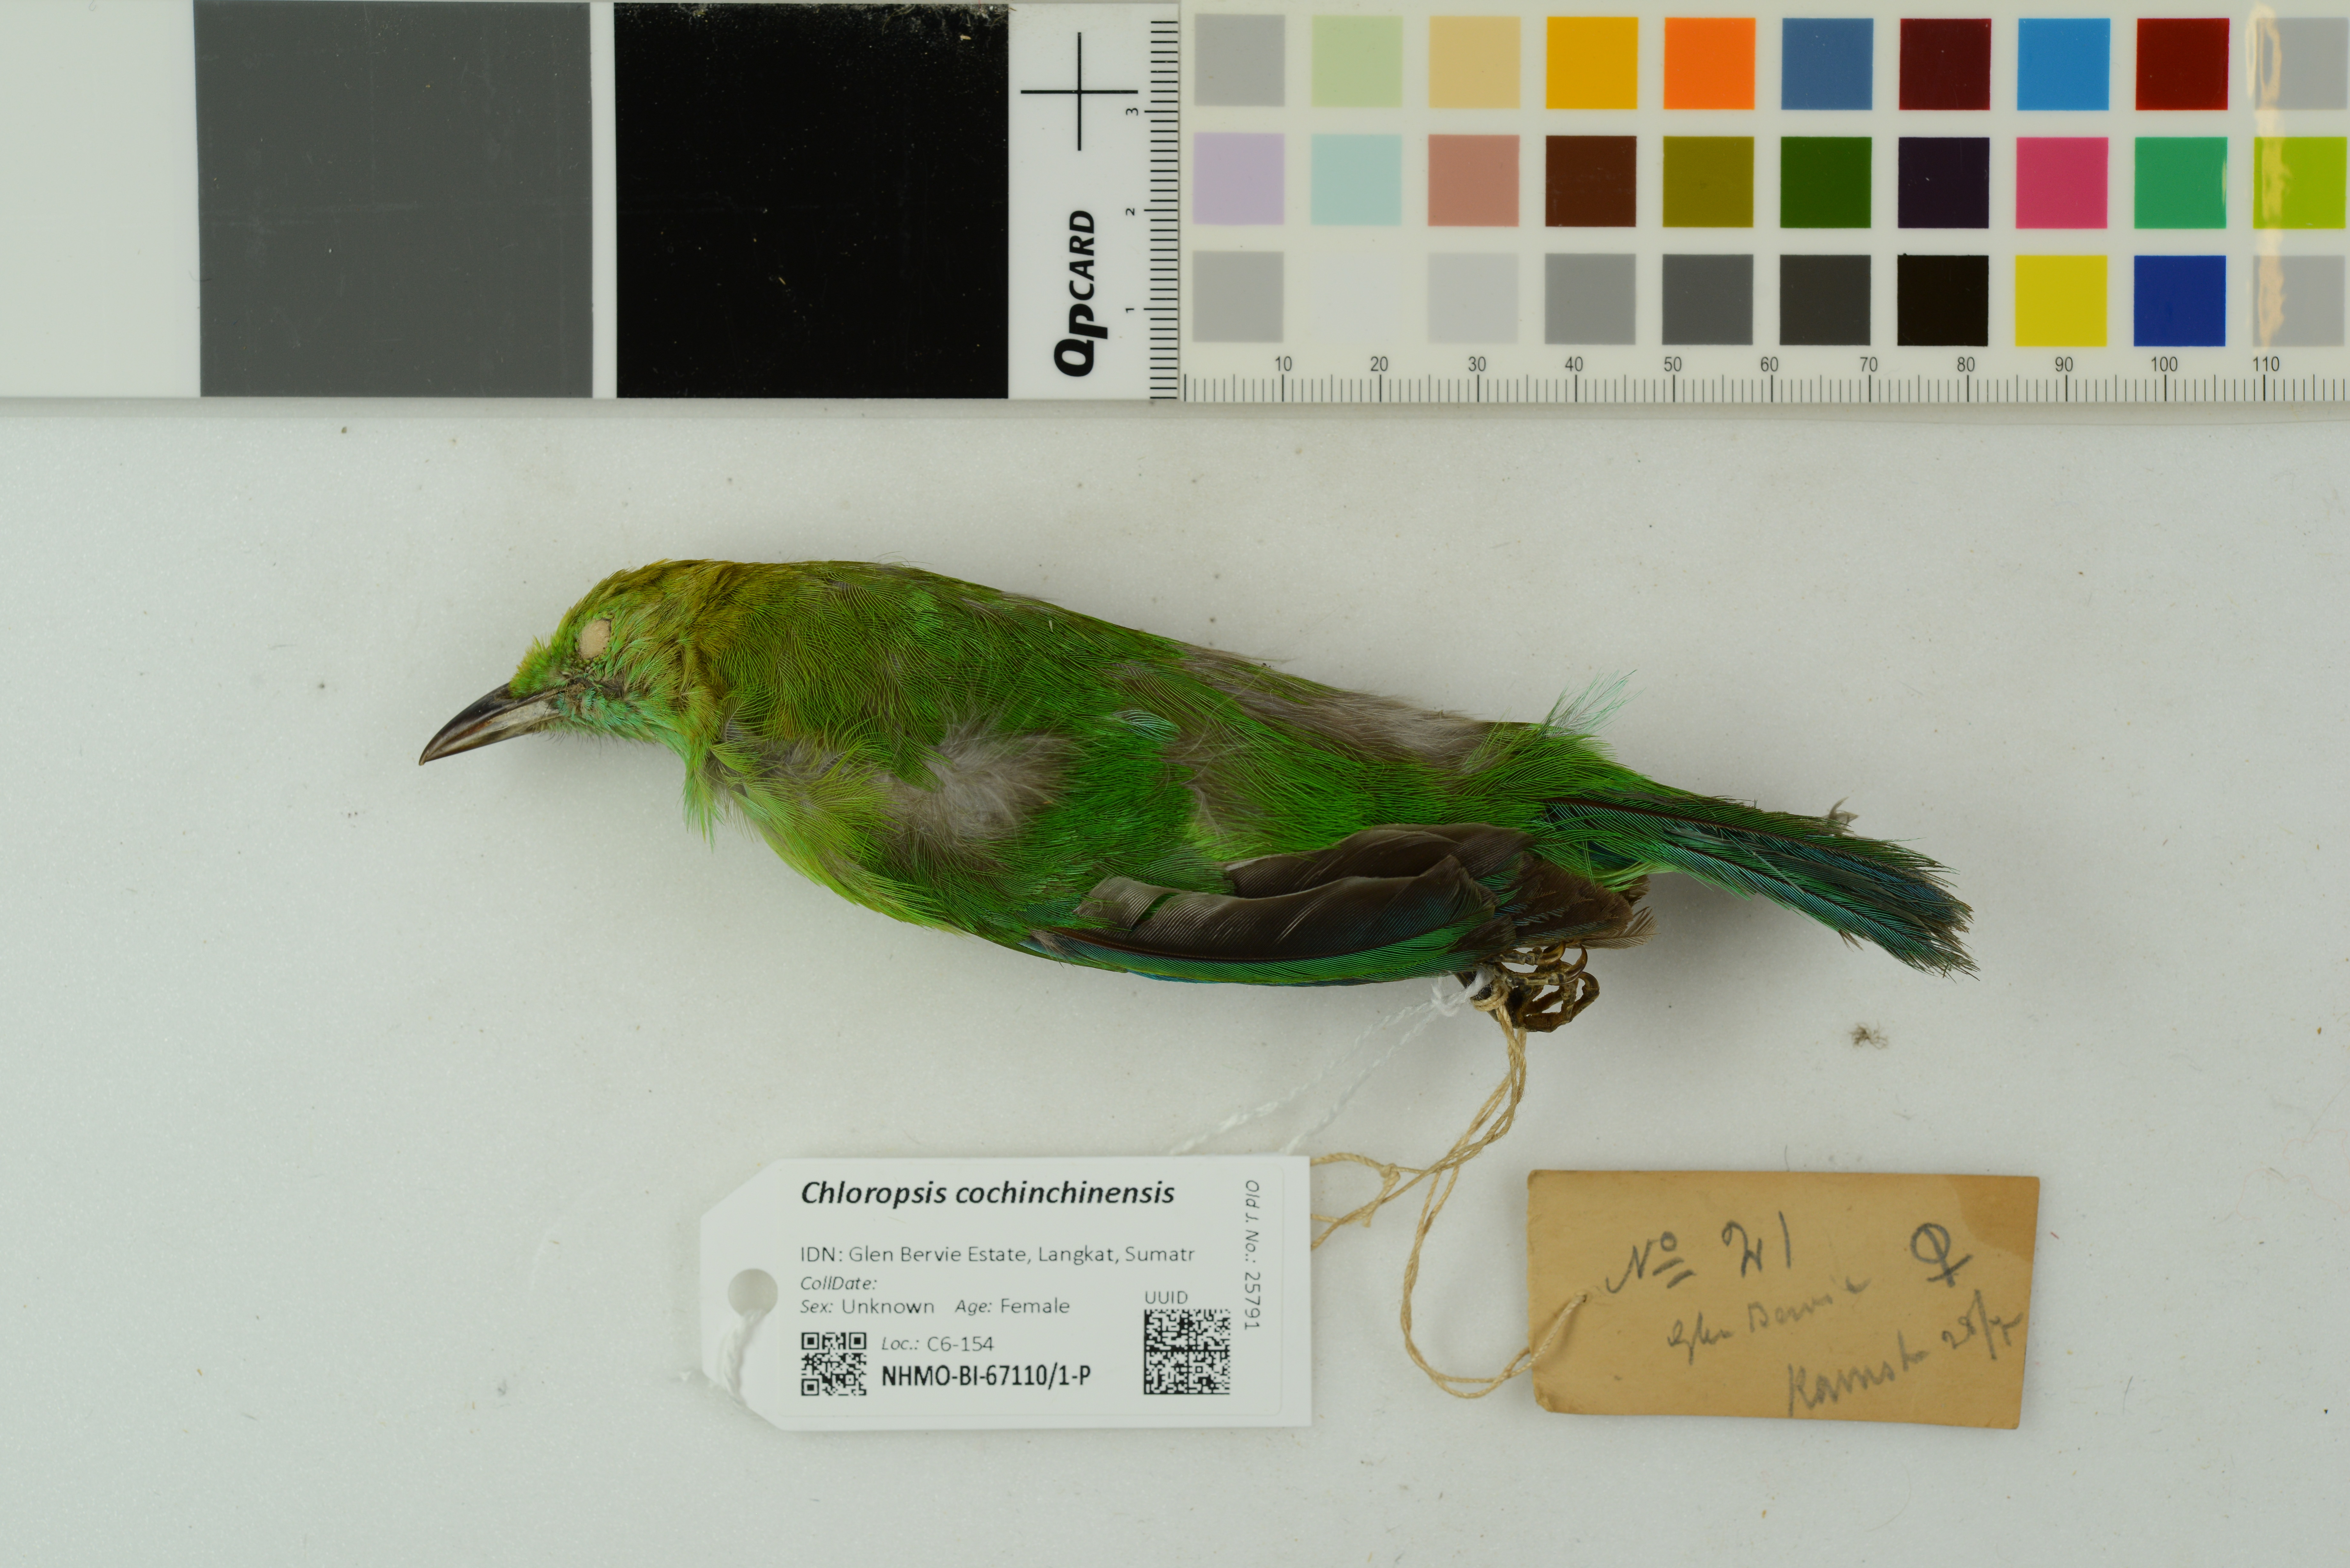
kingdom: Animalia
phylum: Chordata
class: Aves
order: Passeriformes
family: Chloropseidae
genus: Chloropsis
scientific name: Chloropsis cochinchinensis
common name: Blue-winged leafbird
